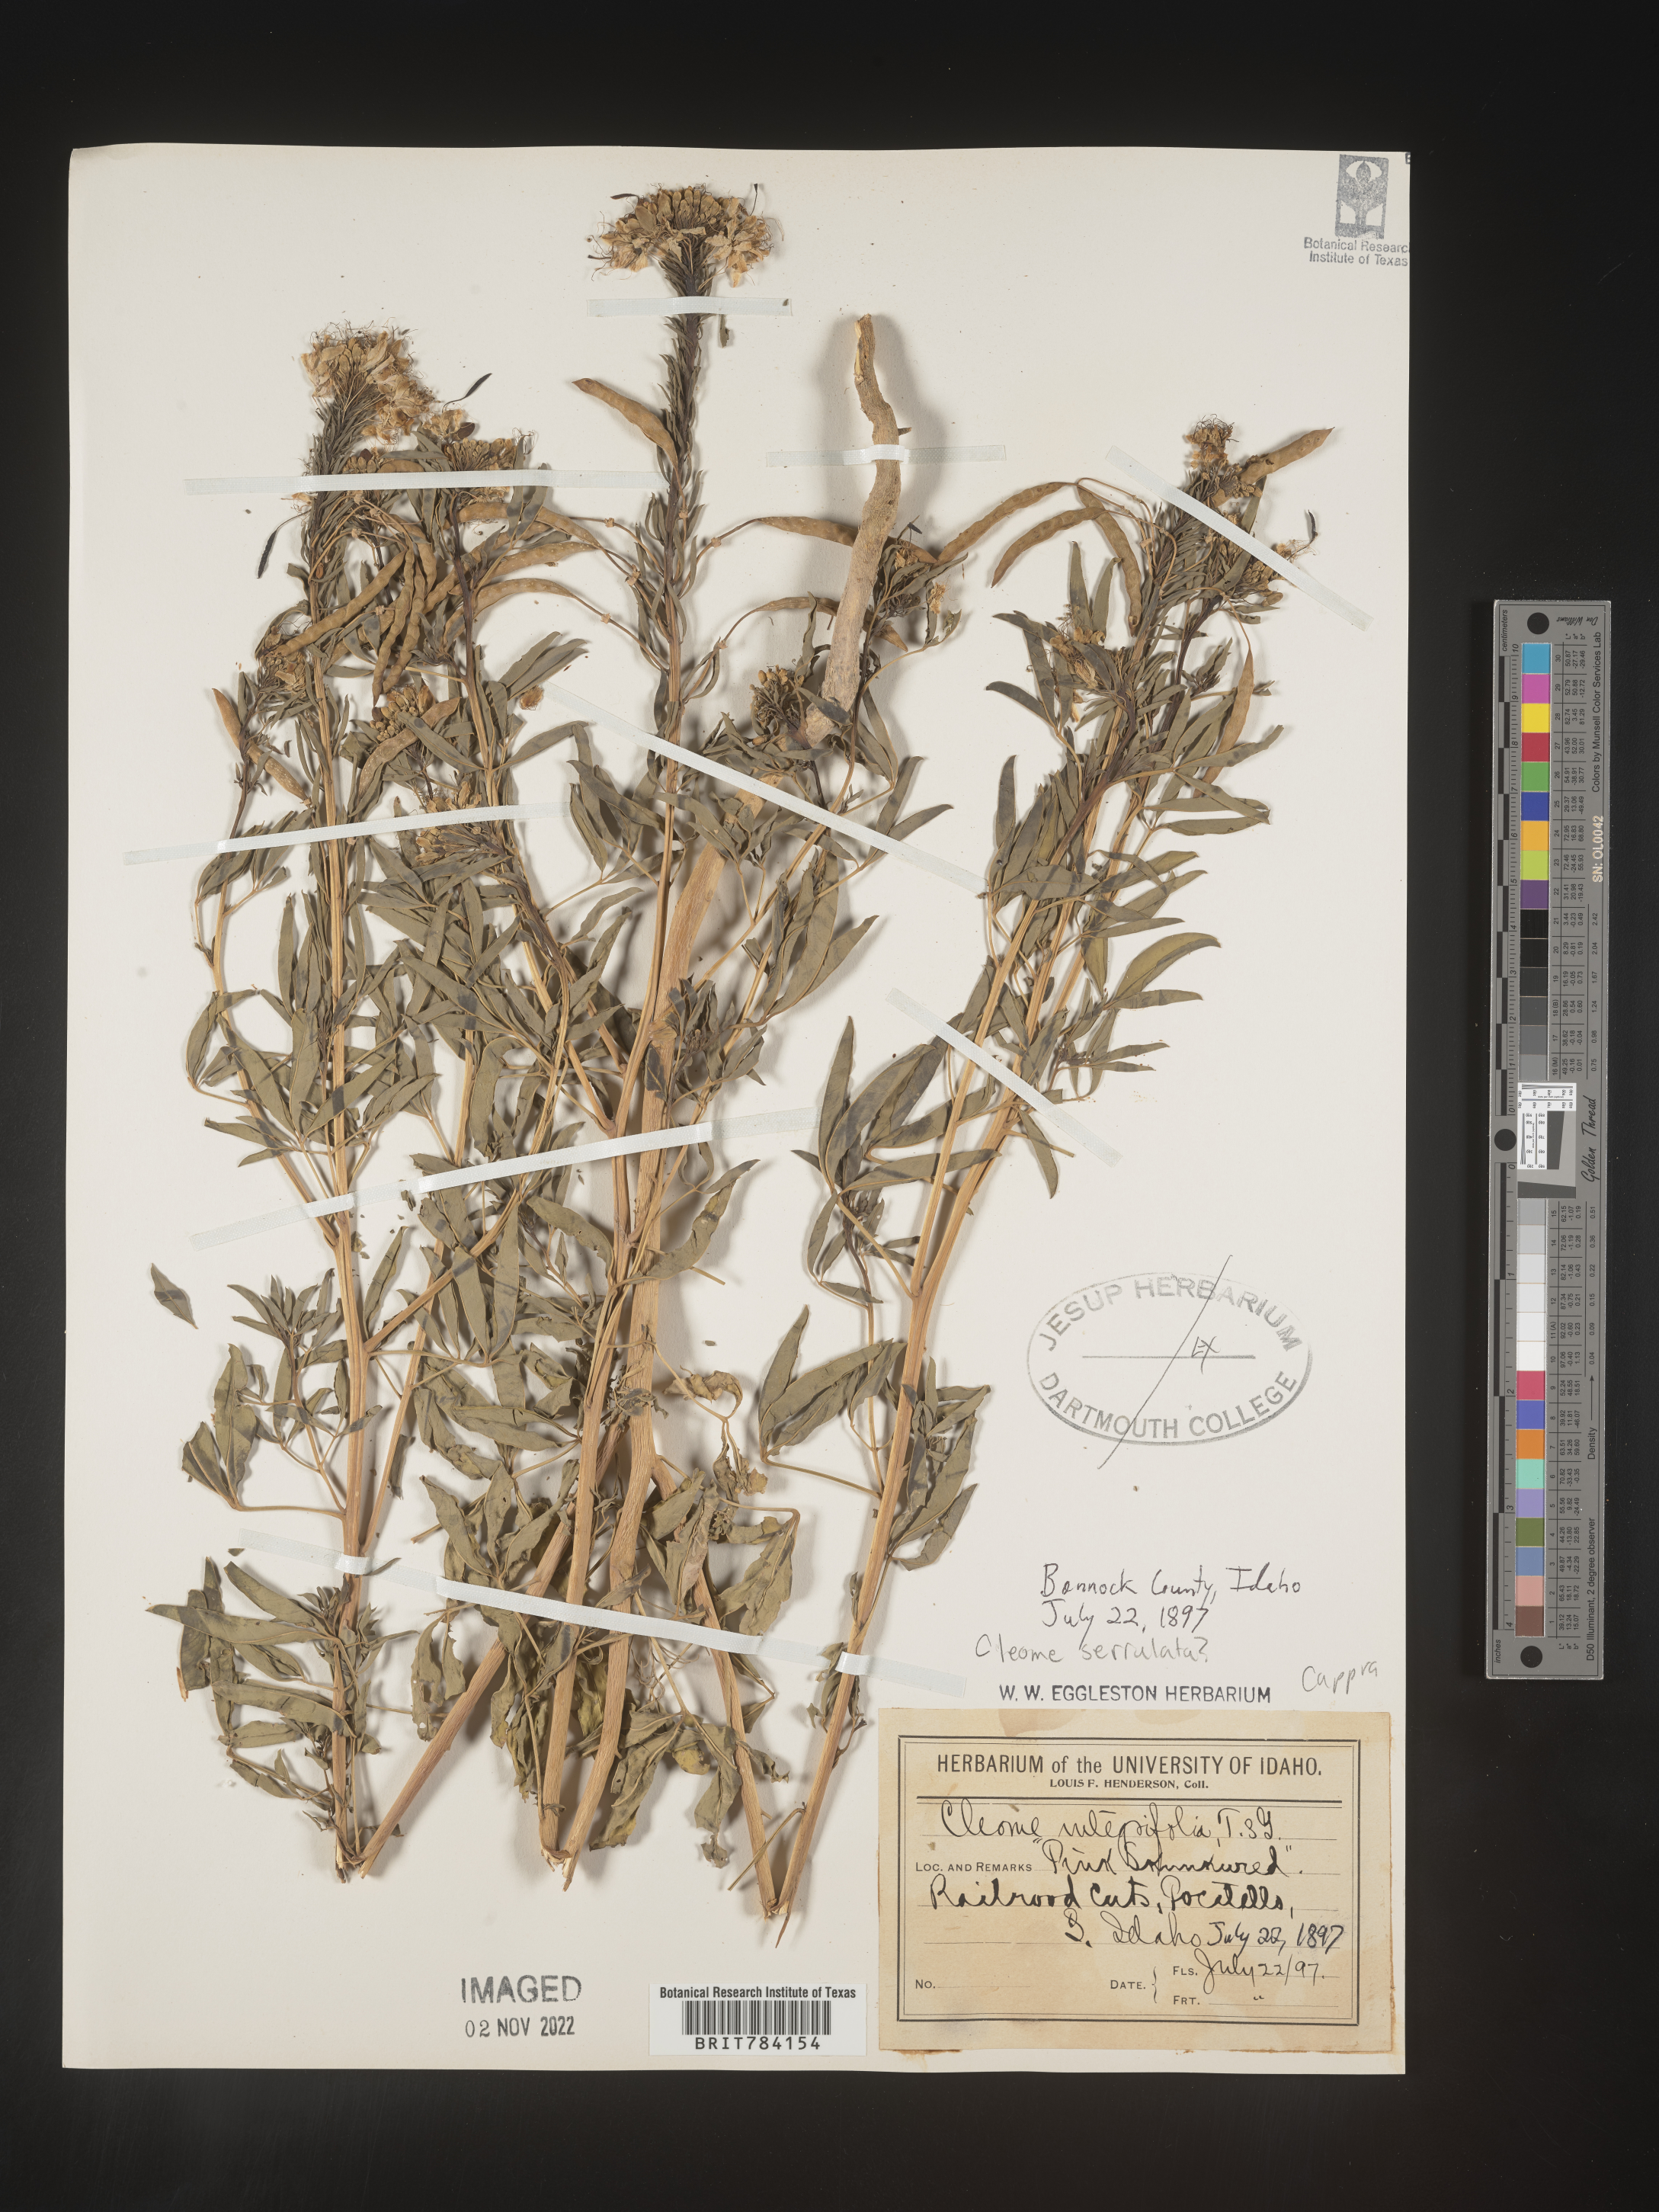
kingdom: Plantae
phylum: Tracheophyta
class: Magnoliopsida
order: Brassicales
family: Cleomaceae
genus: Cleomella
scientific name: Cleomella lutea
